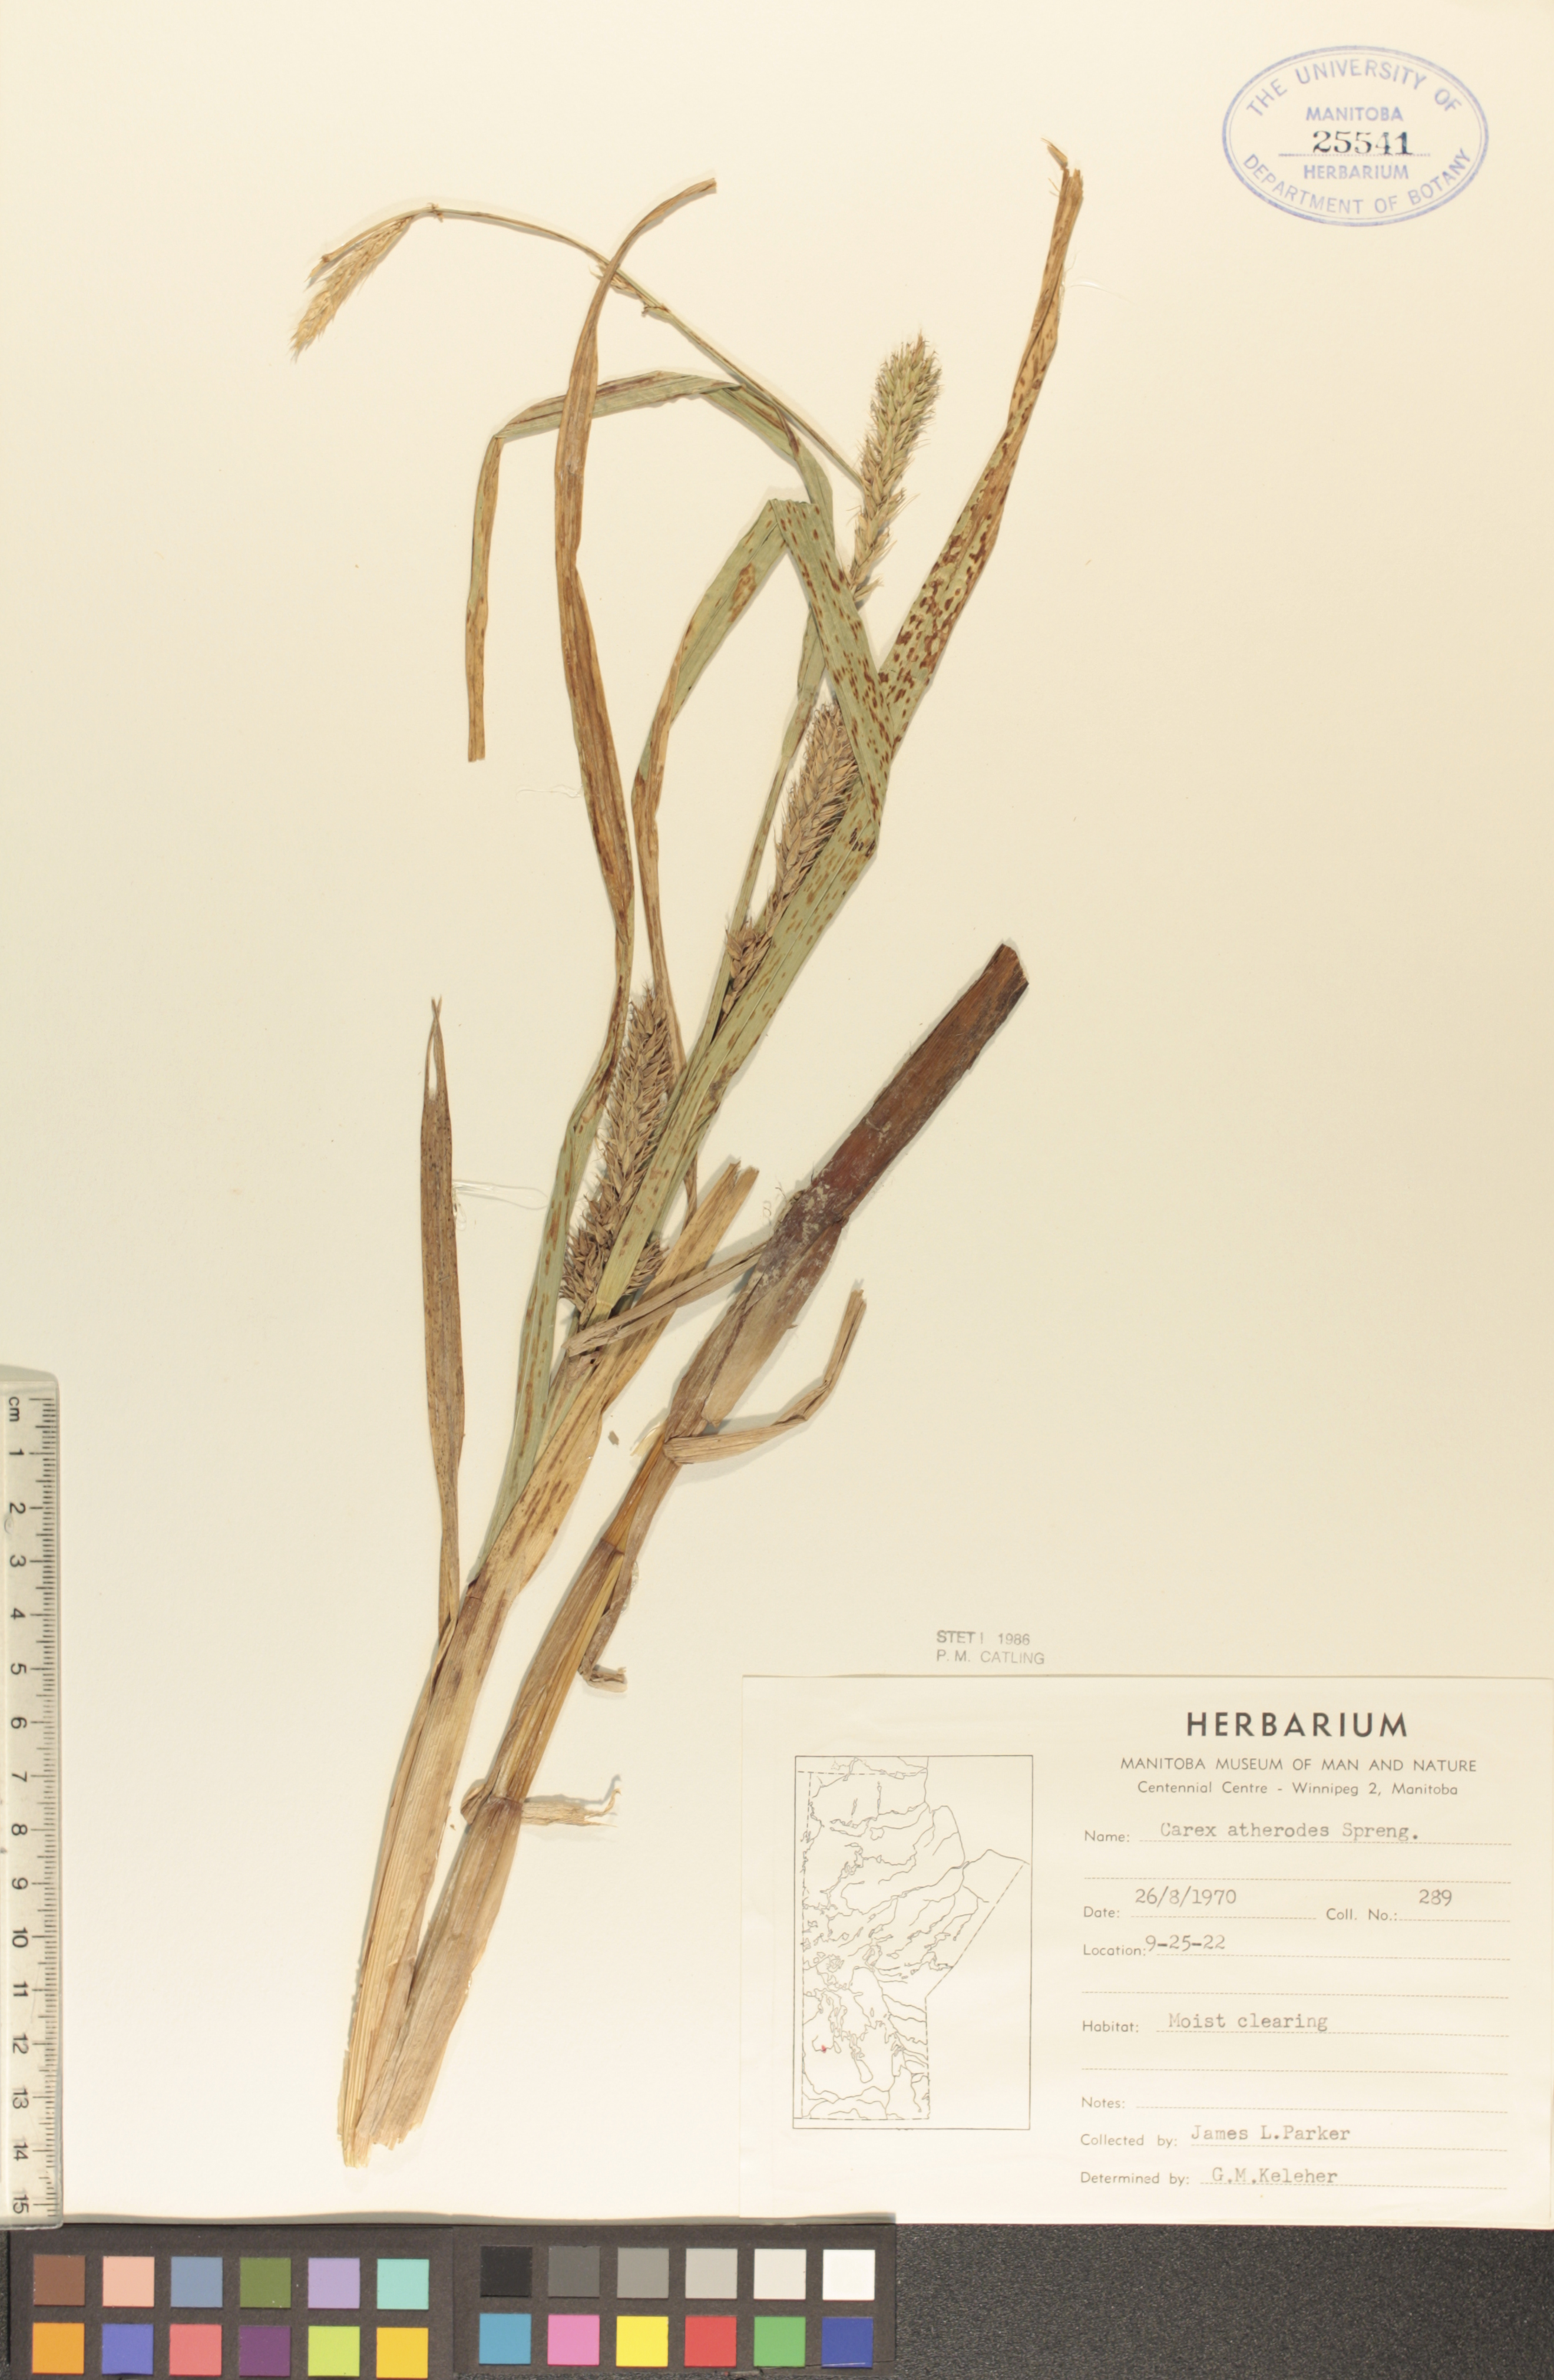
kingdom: Plantae
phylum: Tracheophyta
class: Liliopsida
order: Poales
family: Cyperaceae
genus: Carex
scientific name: Carex atherodes
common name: Wheat sedge
